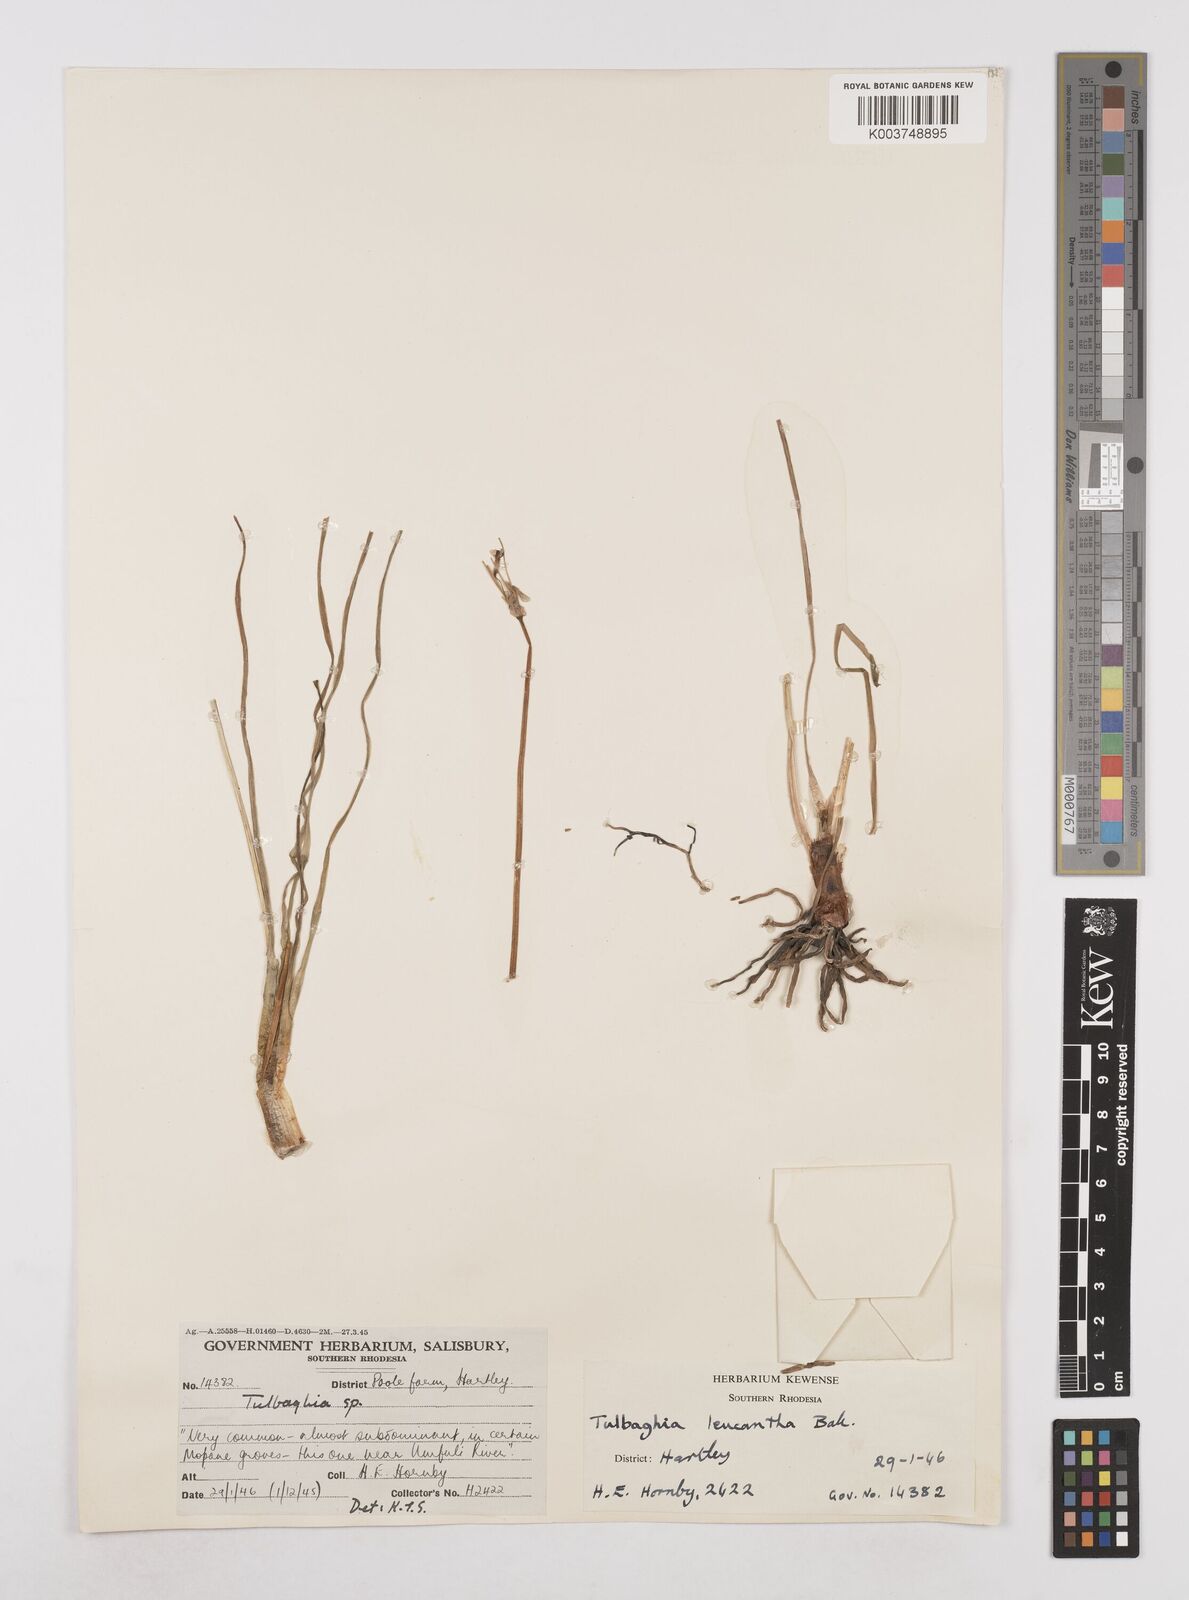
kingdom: Plantae
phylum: Tracheophyta
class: Liliopsida
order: Asparagales
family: Amaryllidaceae
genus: Tulbaghia
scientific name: Tulbaghia
